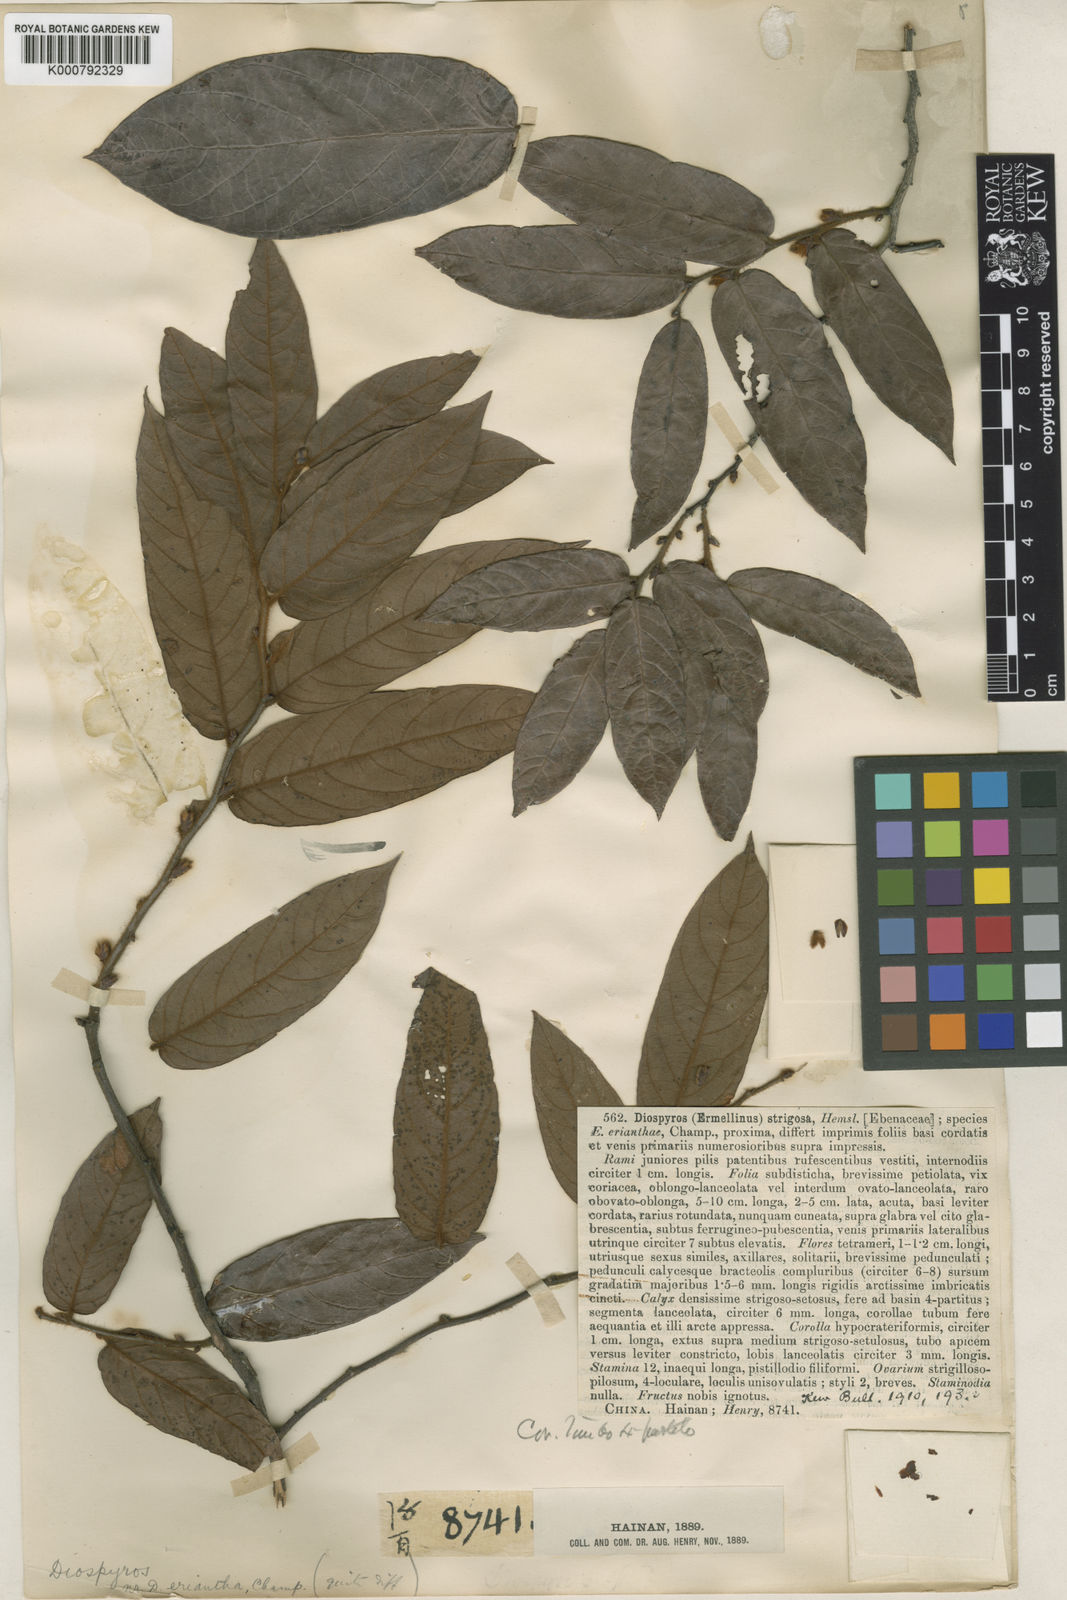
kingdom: Plantae
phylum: Tracheophyta
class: Magnoliopsida
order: Ericales
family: Ebenaceae
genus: Diospyros
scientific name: Diospyros strigosa
